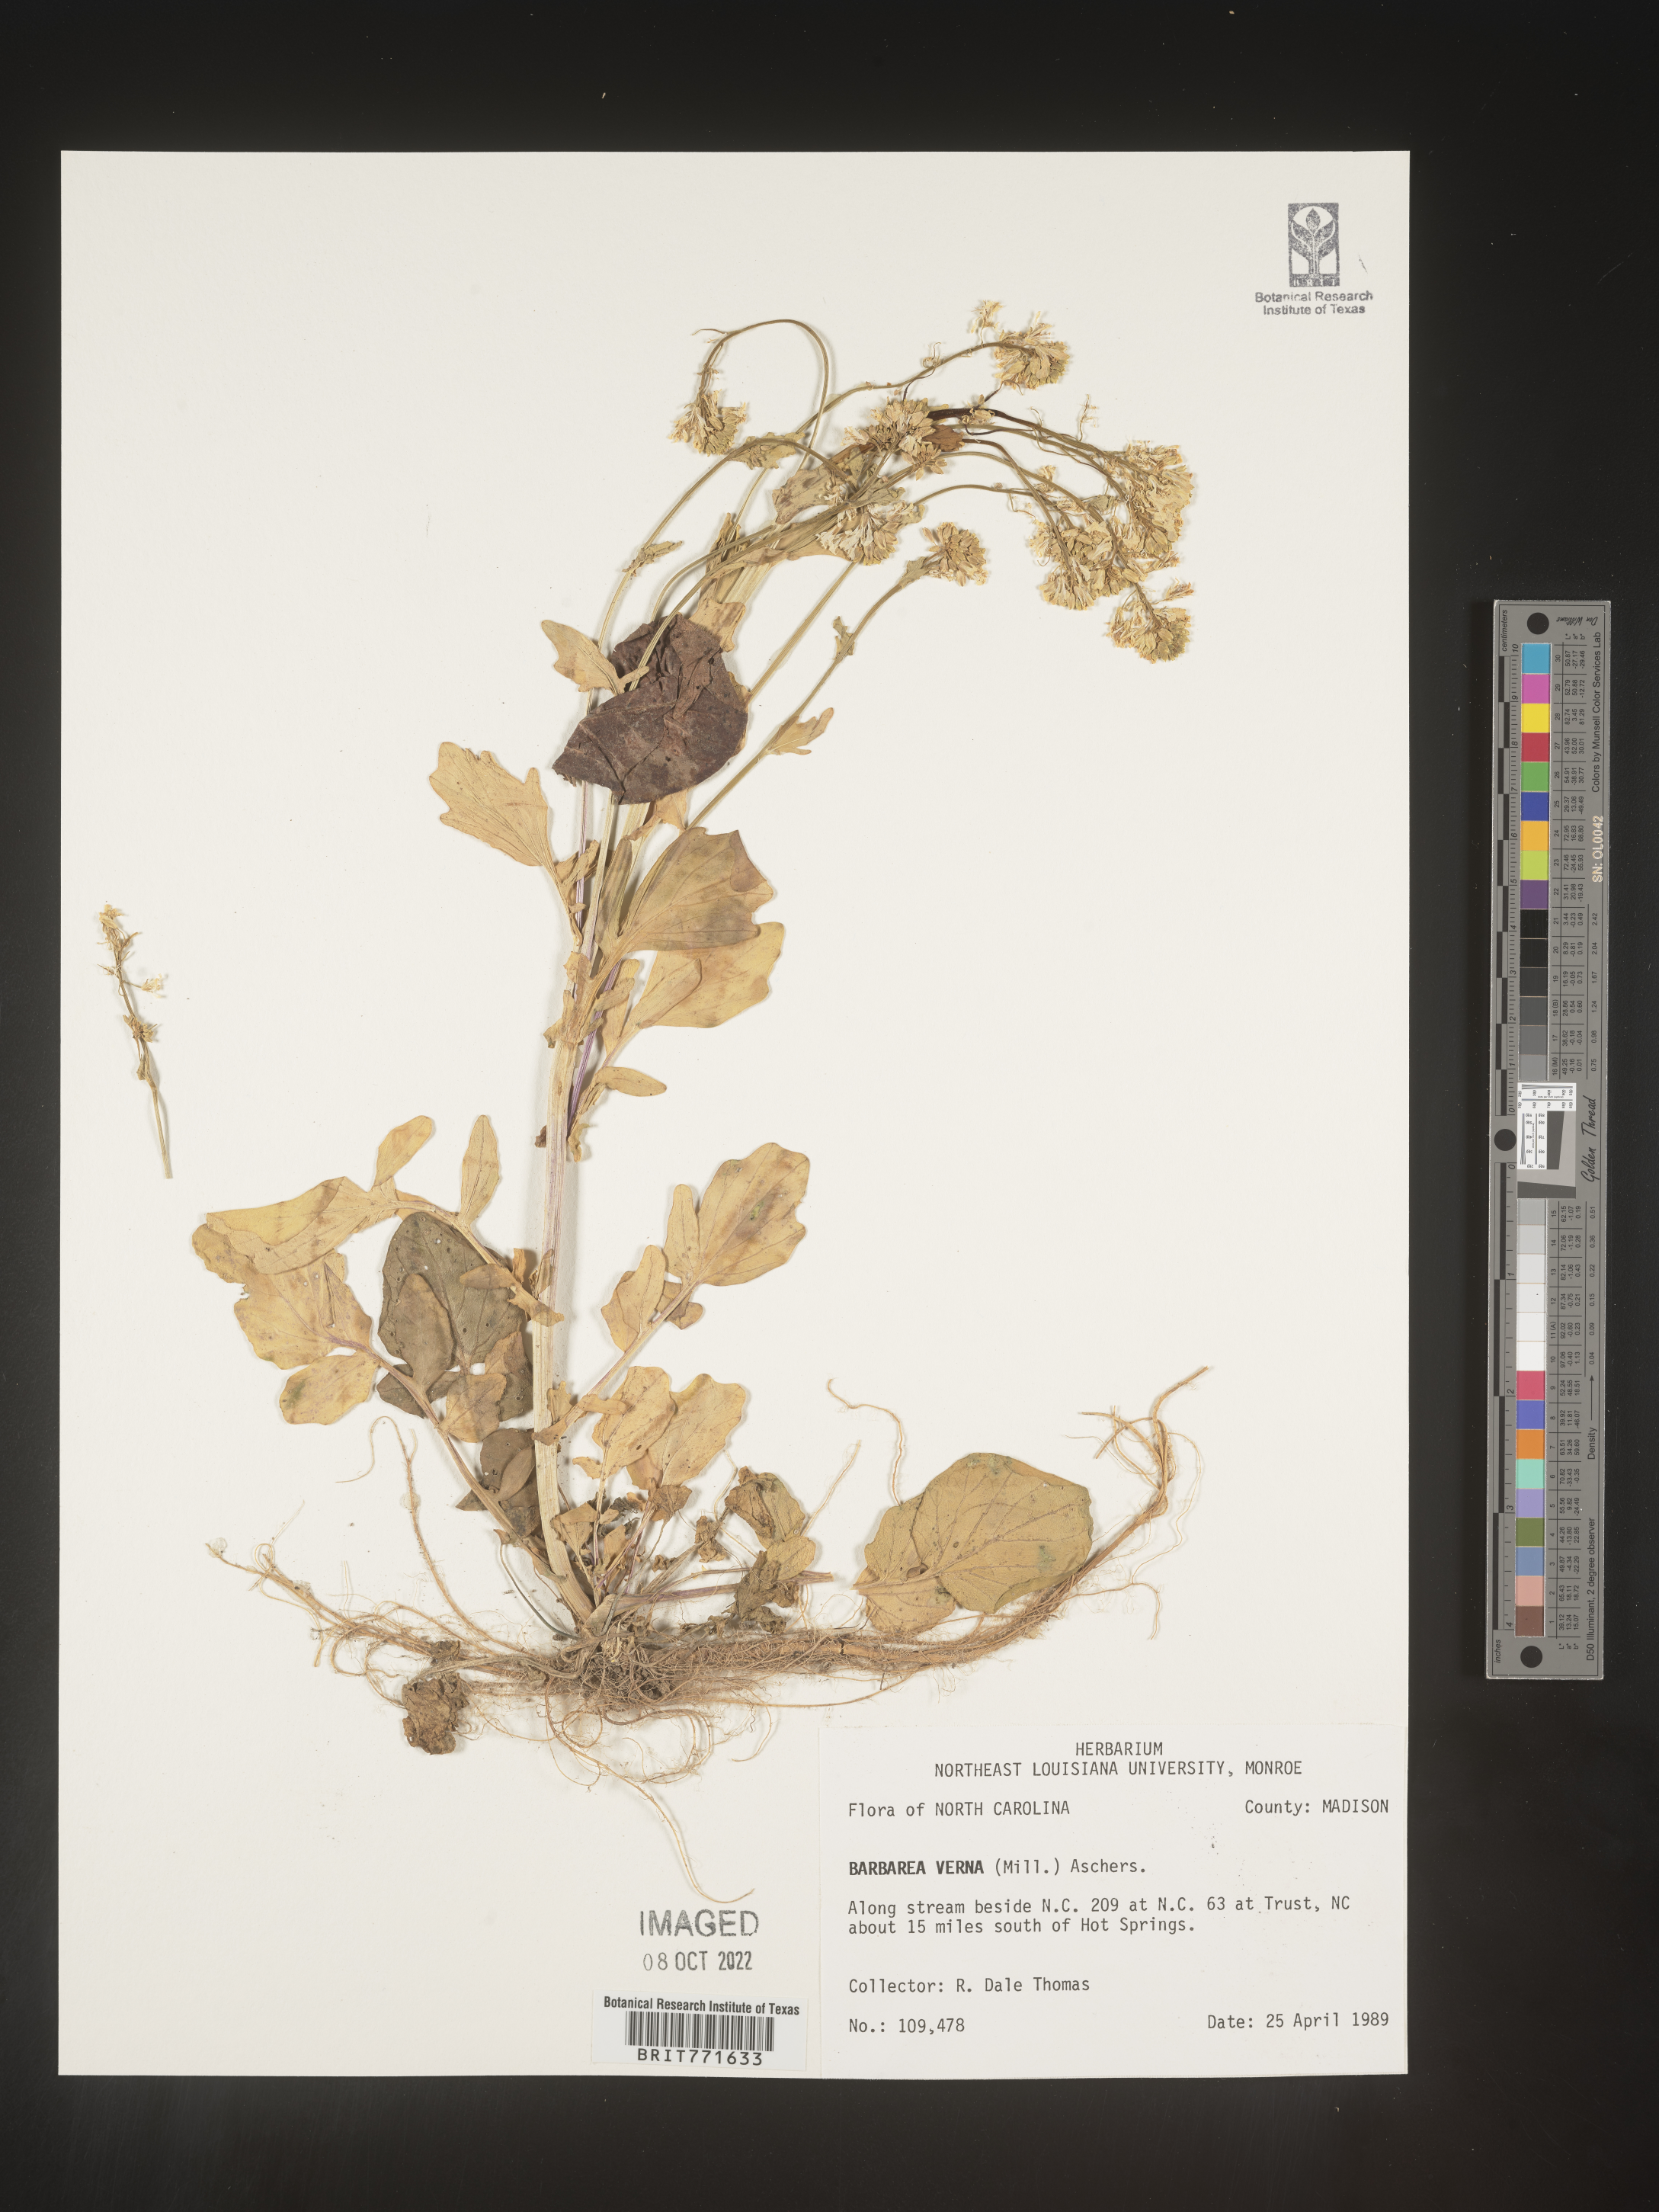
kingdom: Plantae
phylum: Tracheophyta
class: Magnoliopsida
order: Brassicales
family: Brassicaceae
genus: Barbarea
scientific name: Barbarea verna
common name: American cress
